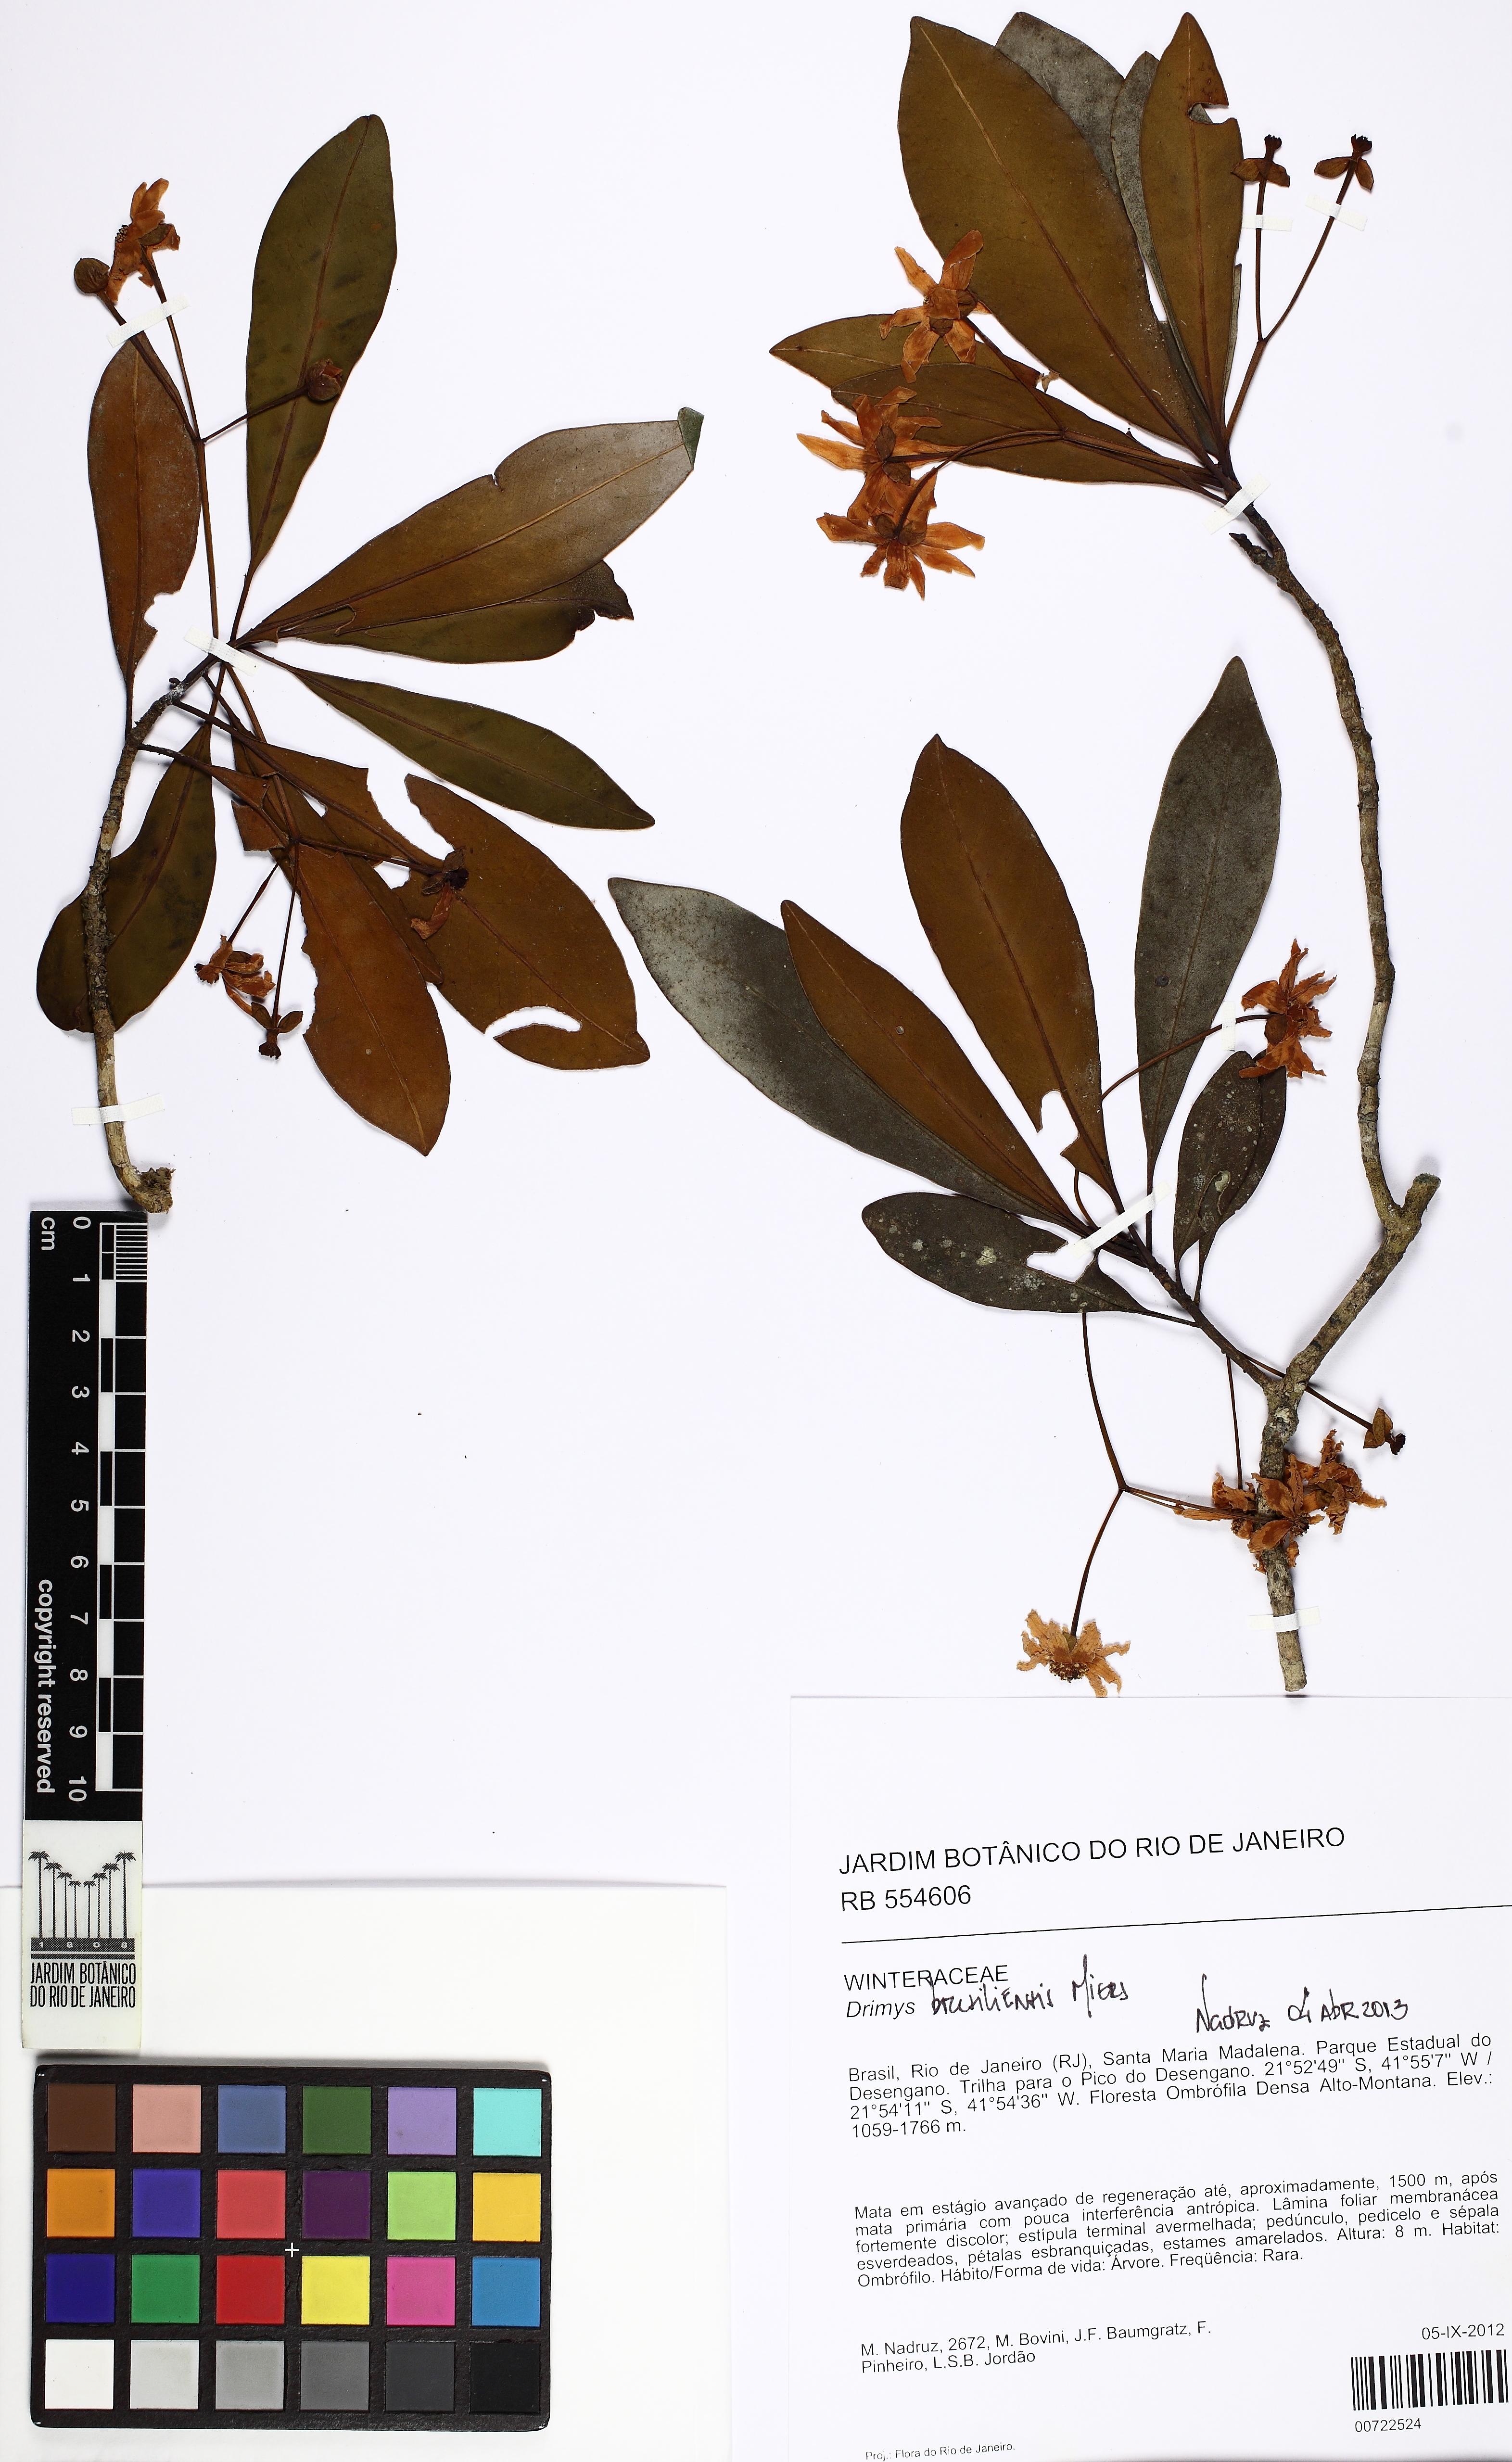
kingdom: Plantae
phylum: Tracheophyta
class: Magnoliopsida
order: Canellales
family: Winteraceae
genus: Drimys
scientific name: Drimys brasiliensis
